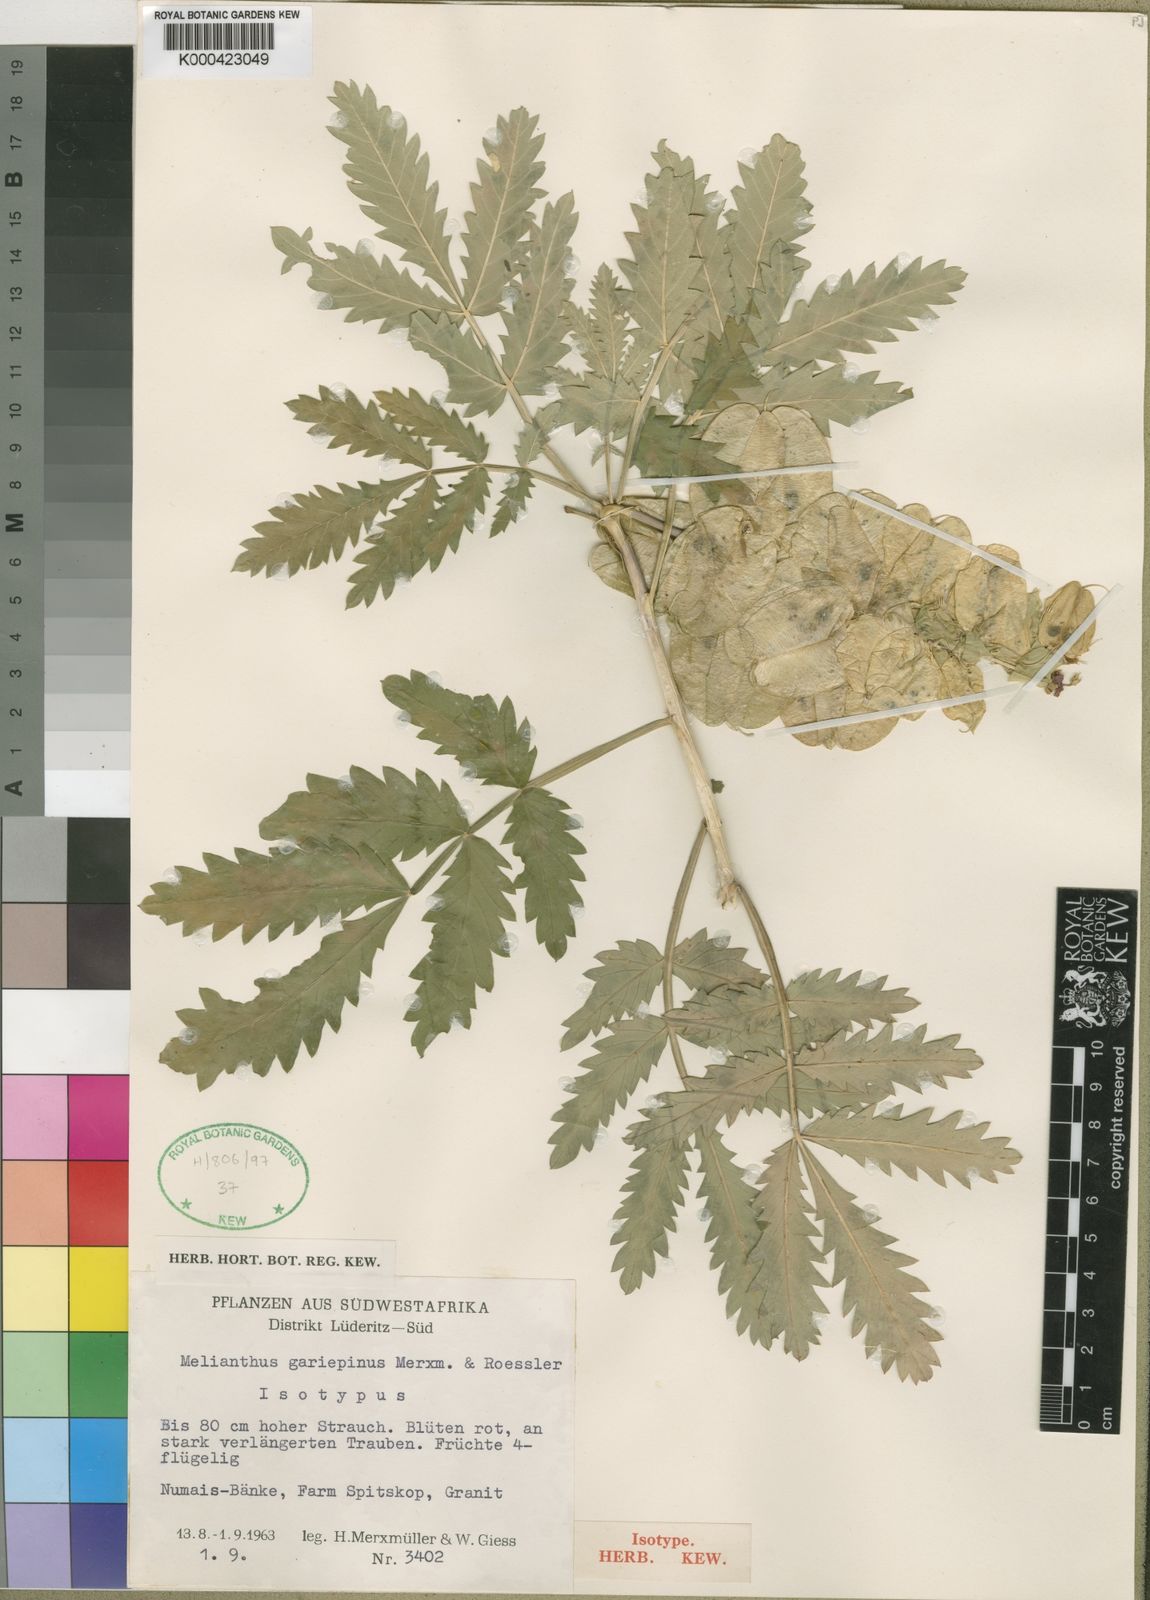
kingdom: Plantae
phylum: Tracheophyta
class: Magnoliopsida
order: Geraniales
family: Melianthaceae
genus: Melianthus
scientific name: Melianthus pectinatus
